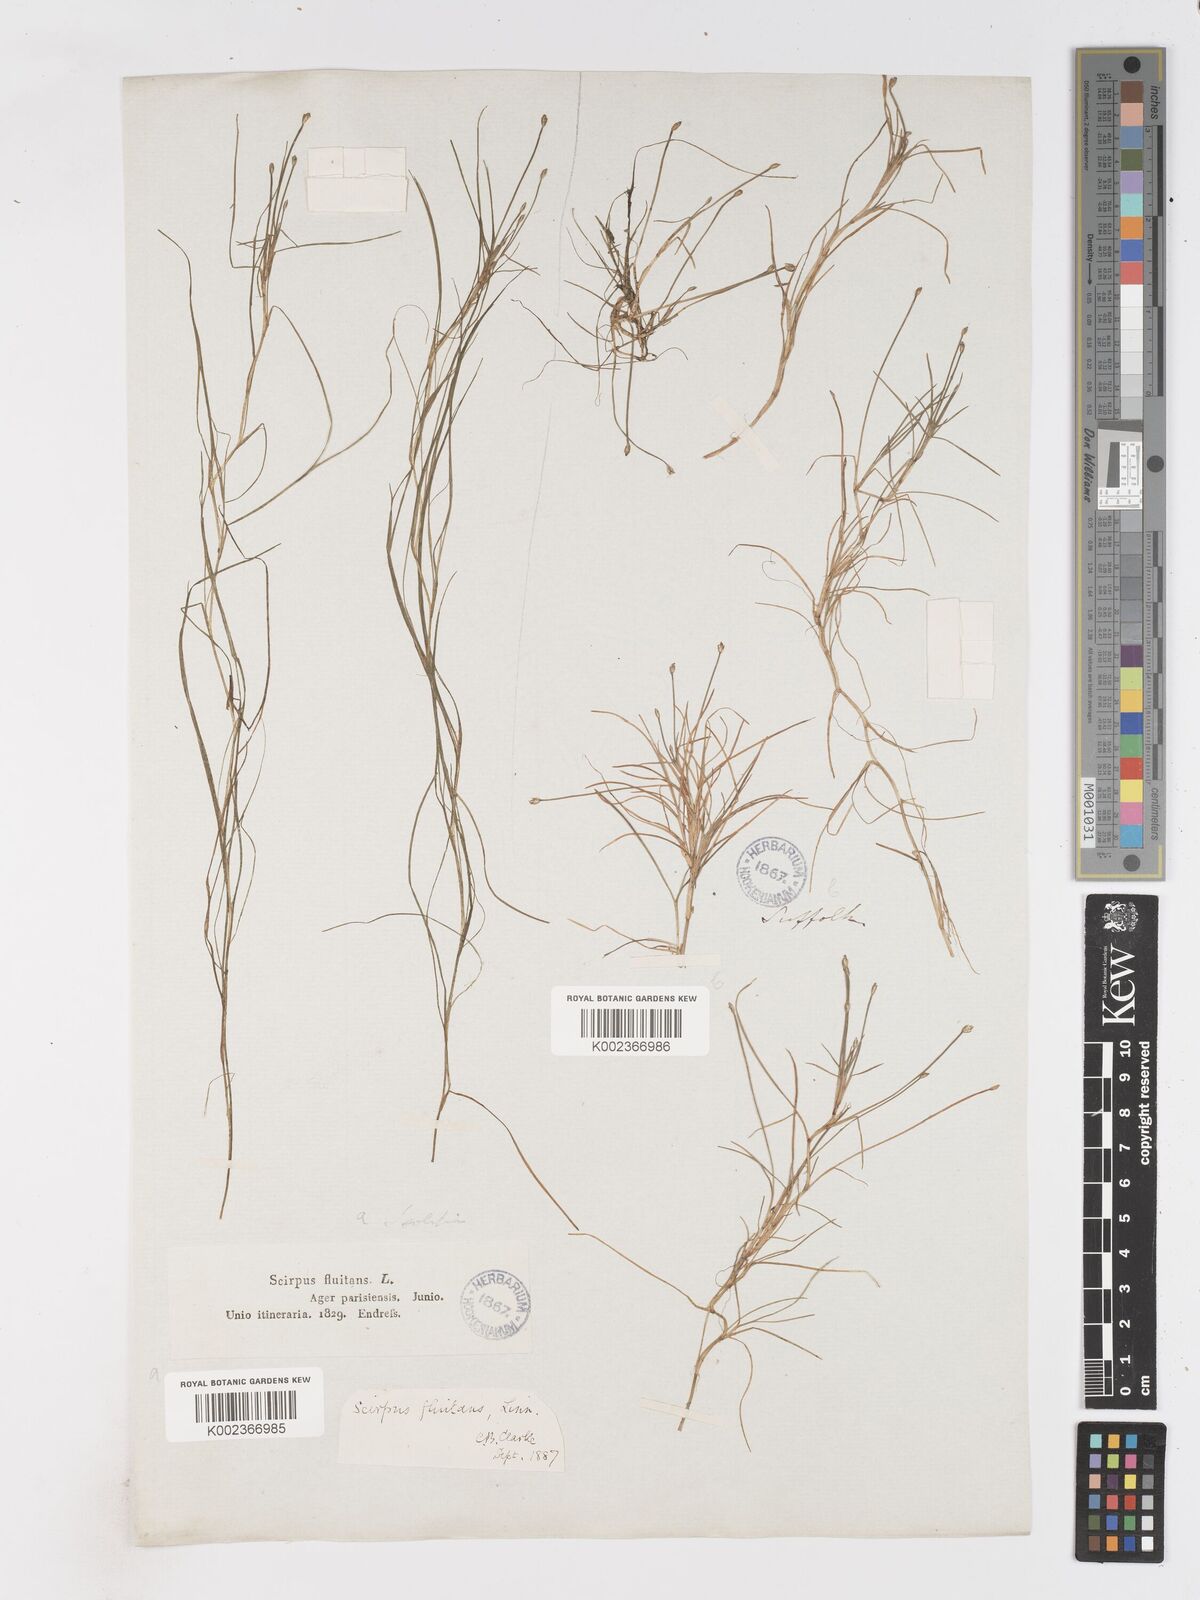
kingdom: Plantae
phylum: Tracheophyta
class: Liliopsida
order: Poales
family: Cyperaceae
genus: Isolepis
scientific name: Isolepis fluitans
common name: Floating club-rush
